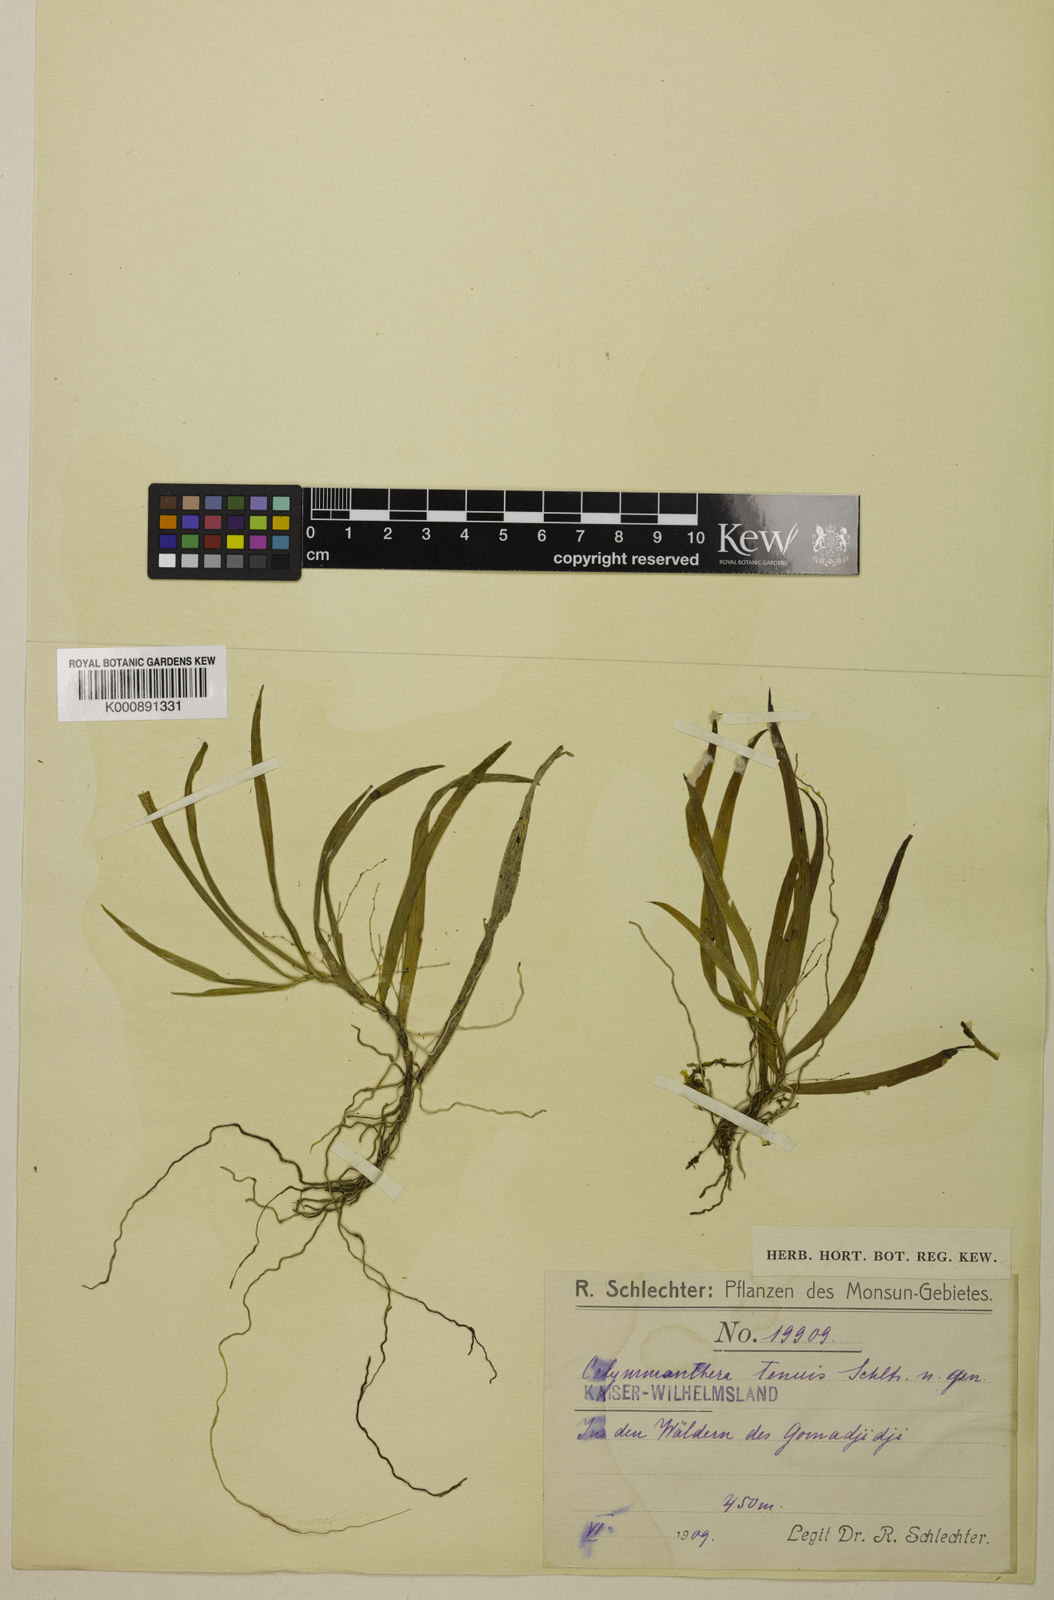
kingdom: Plantae
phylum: Tracheophyta
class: Liliopsida
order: Asparagales
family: Orchidaceae
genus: Calymmanthera
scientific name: Calymmanthera tenuis
